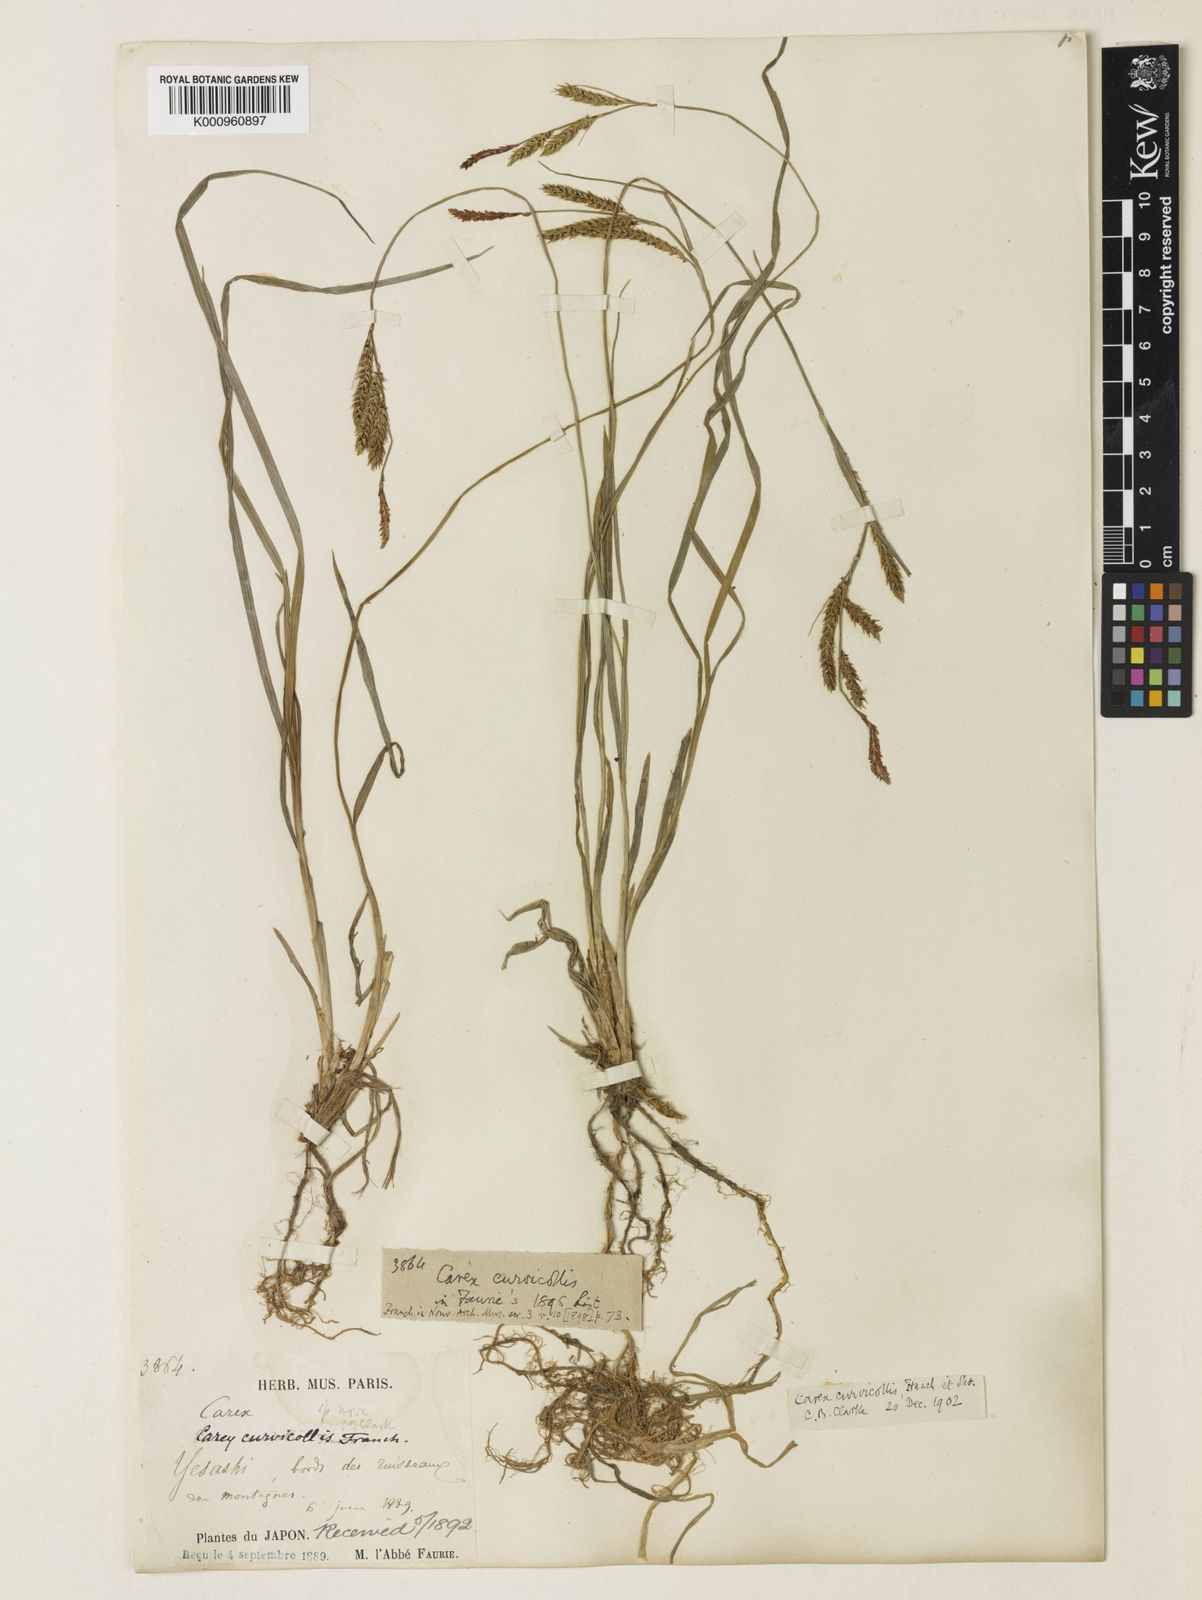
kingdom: Plantae
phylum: Tracheophyta
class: Liliopsida
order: Poales
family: Cyperaceae
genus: Carex
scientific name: Carex curvicollis
